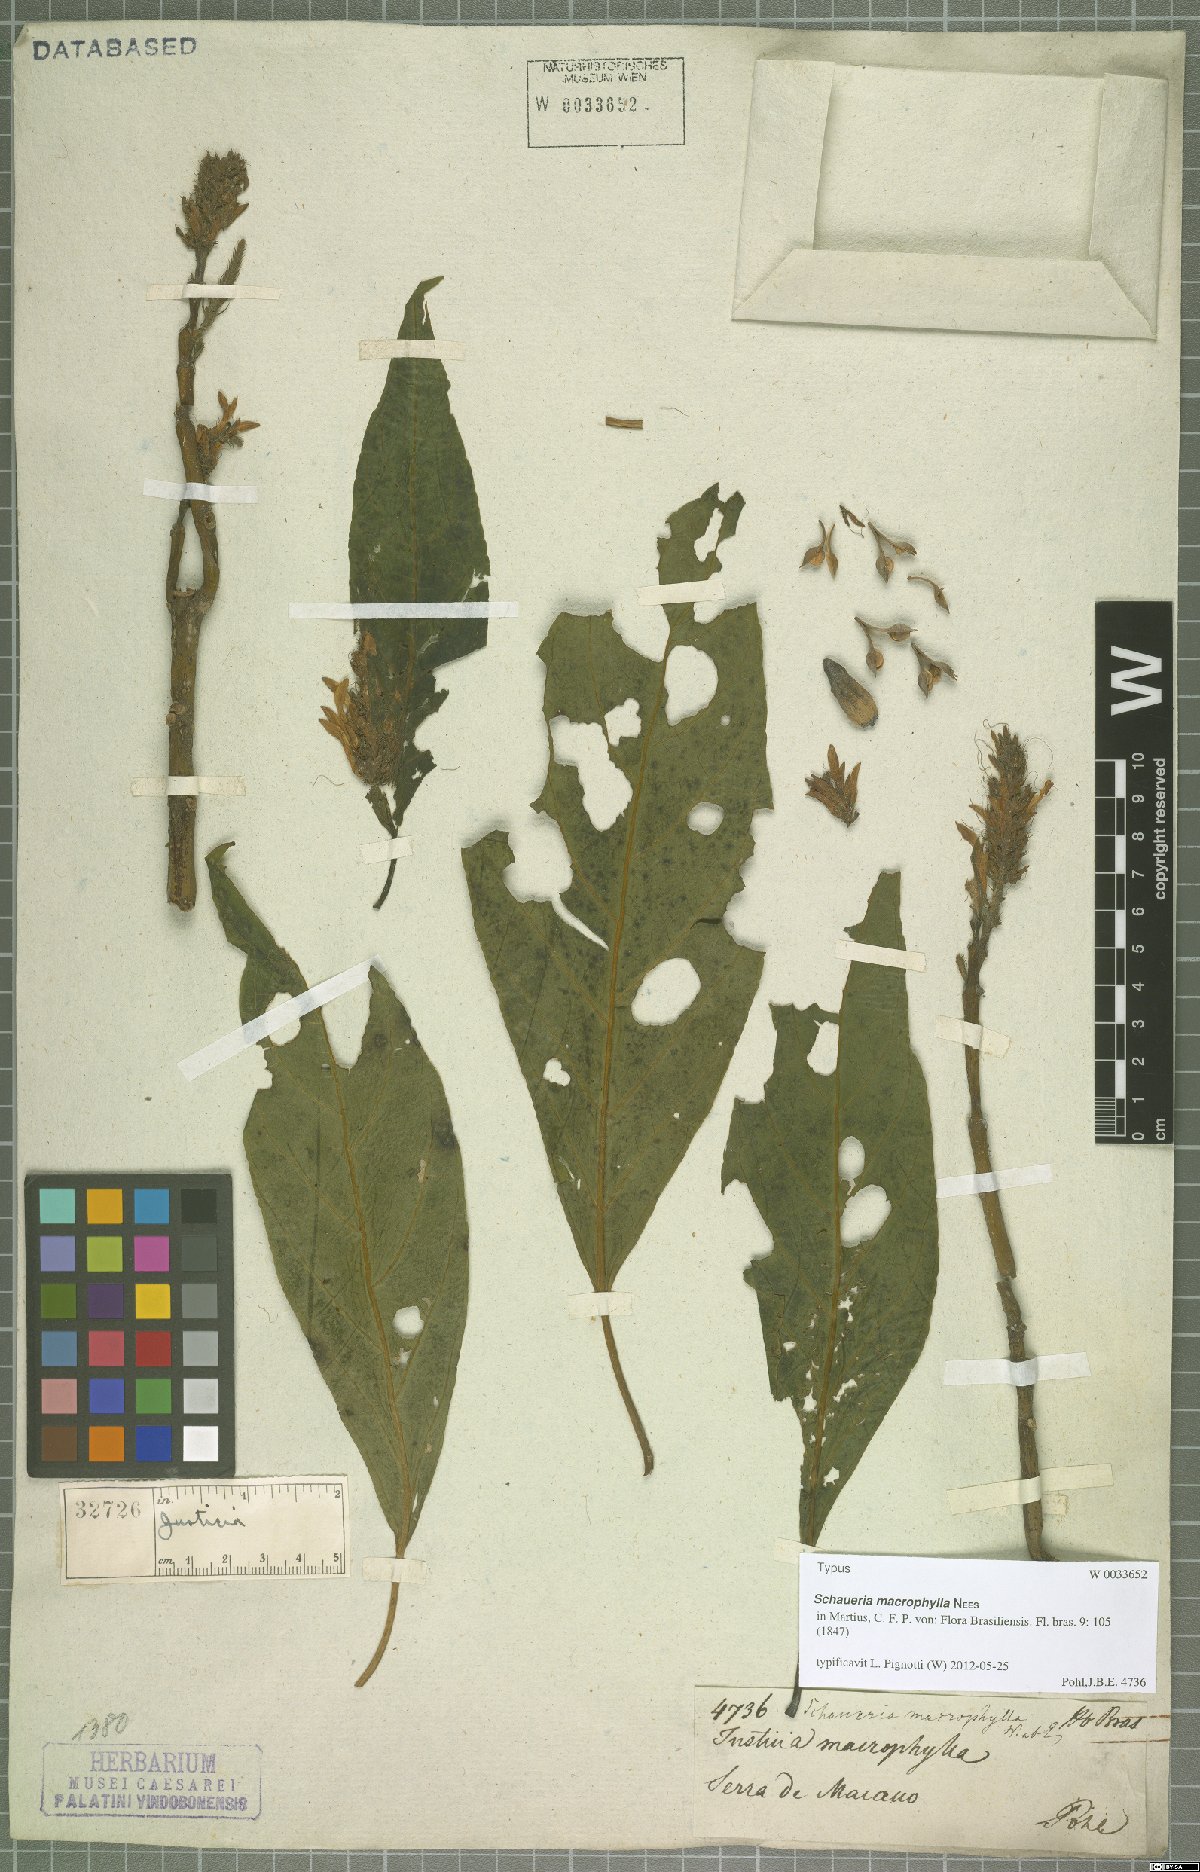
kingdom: Plantae
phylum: Tracheophyta
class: Magnoliopsida
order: Lamiales
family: Acanthaceae
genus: Schaueria
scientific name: Schaueria macrophylla
